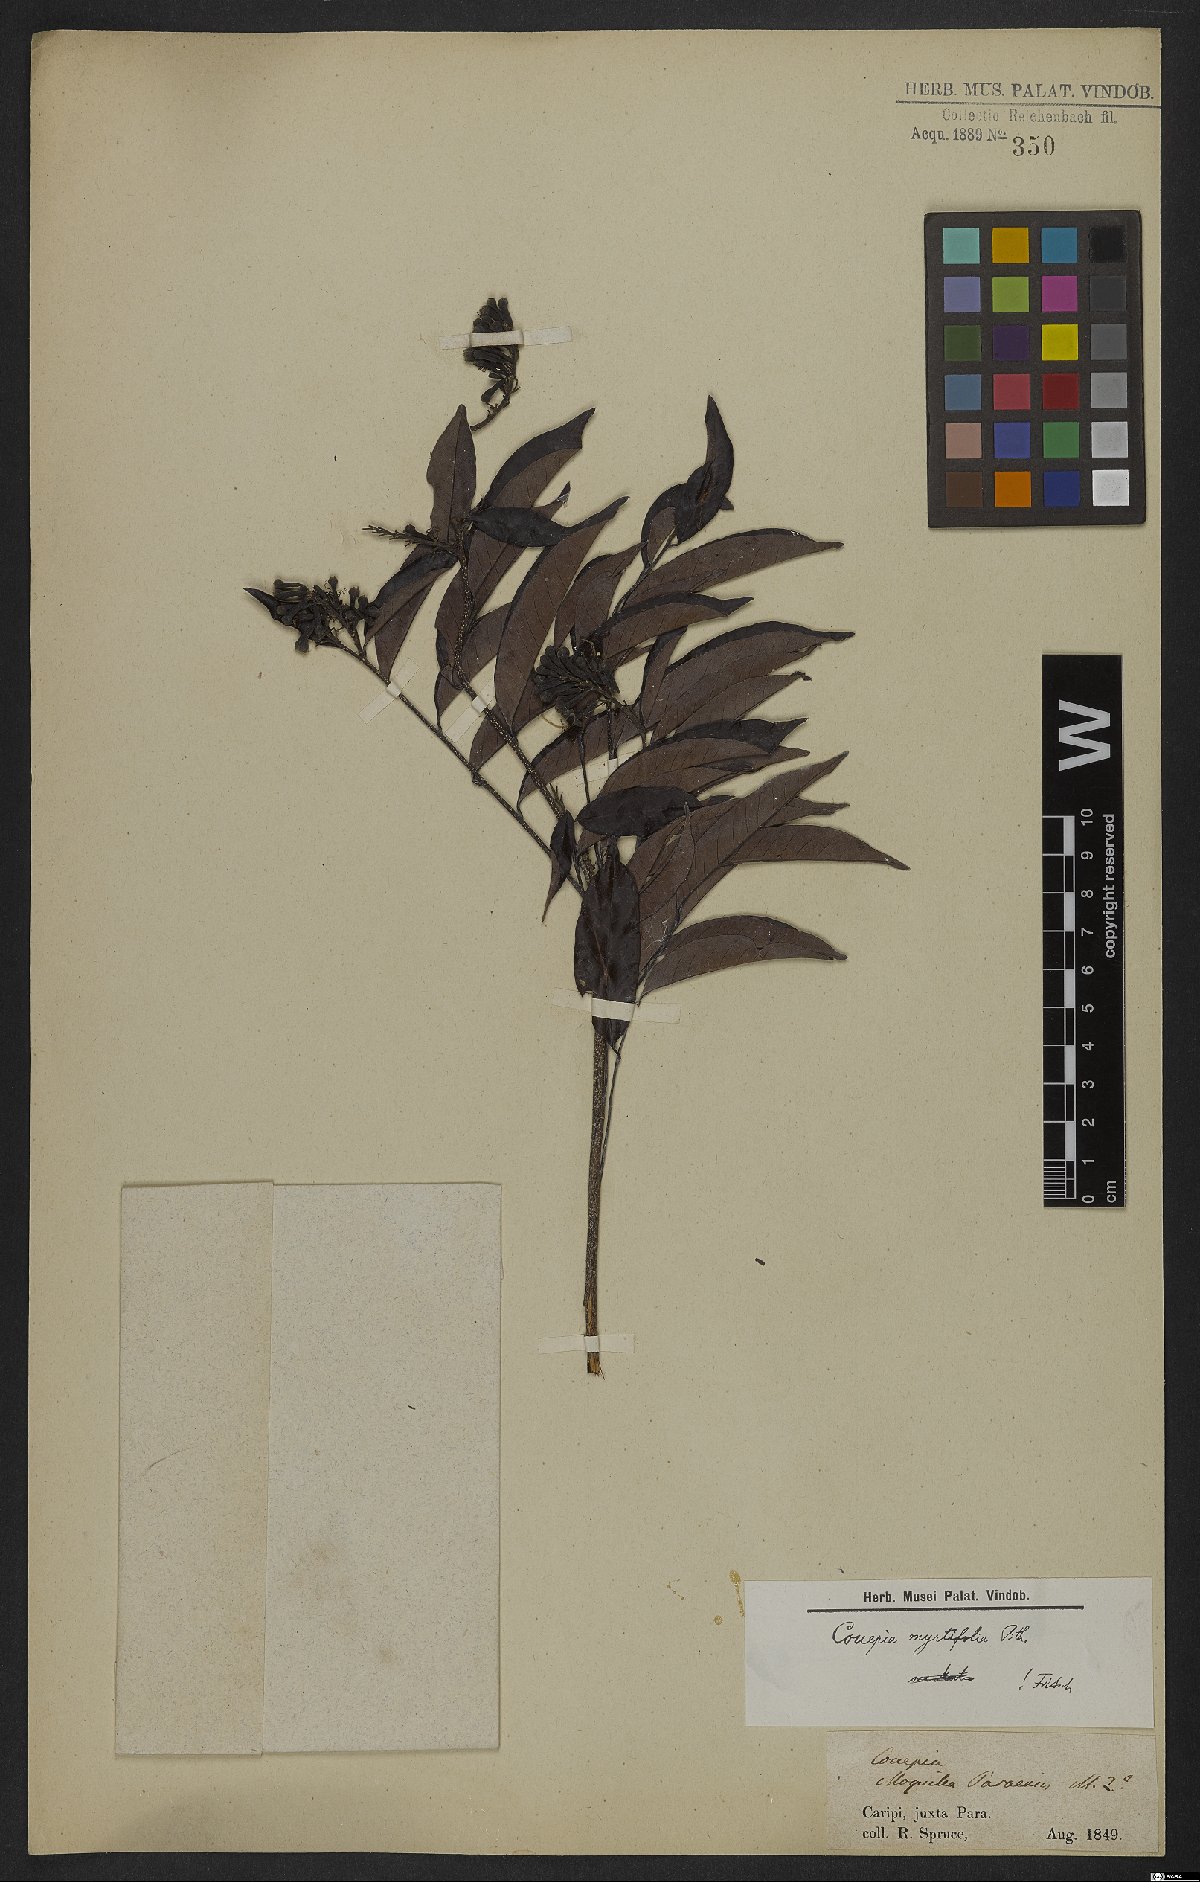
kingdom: Plantae
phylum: Tracheophyta
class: Magnoliopsida
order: Malpighiales
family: Chrysobalanaceae
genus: Couepia
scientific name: Couepia guianensis
